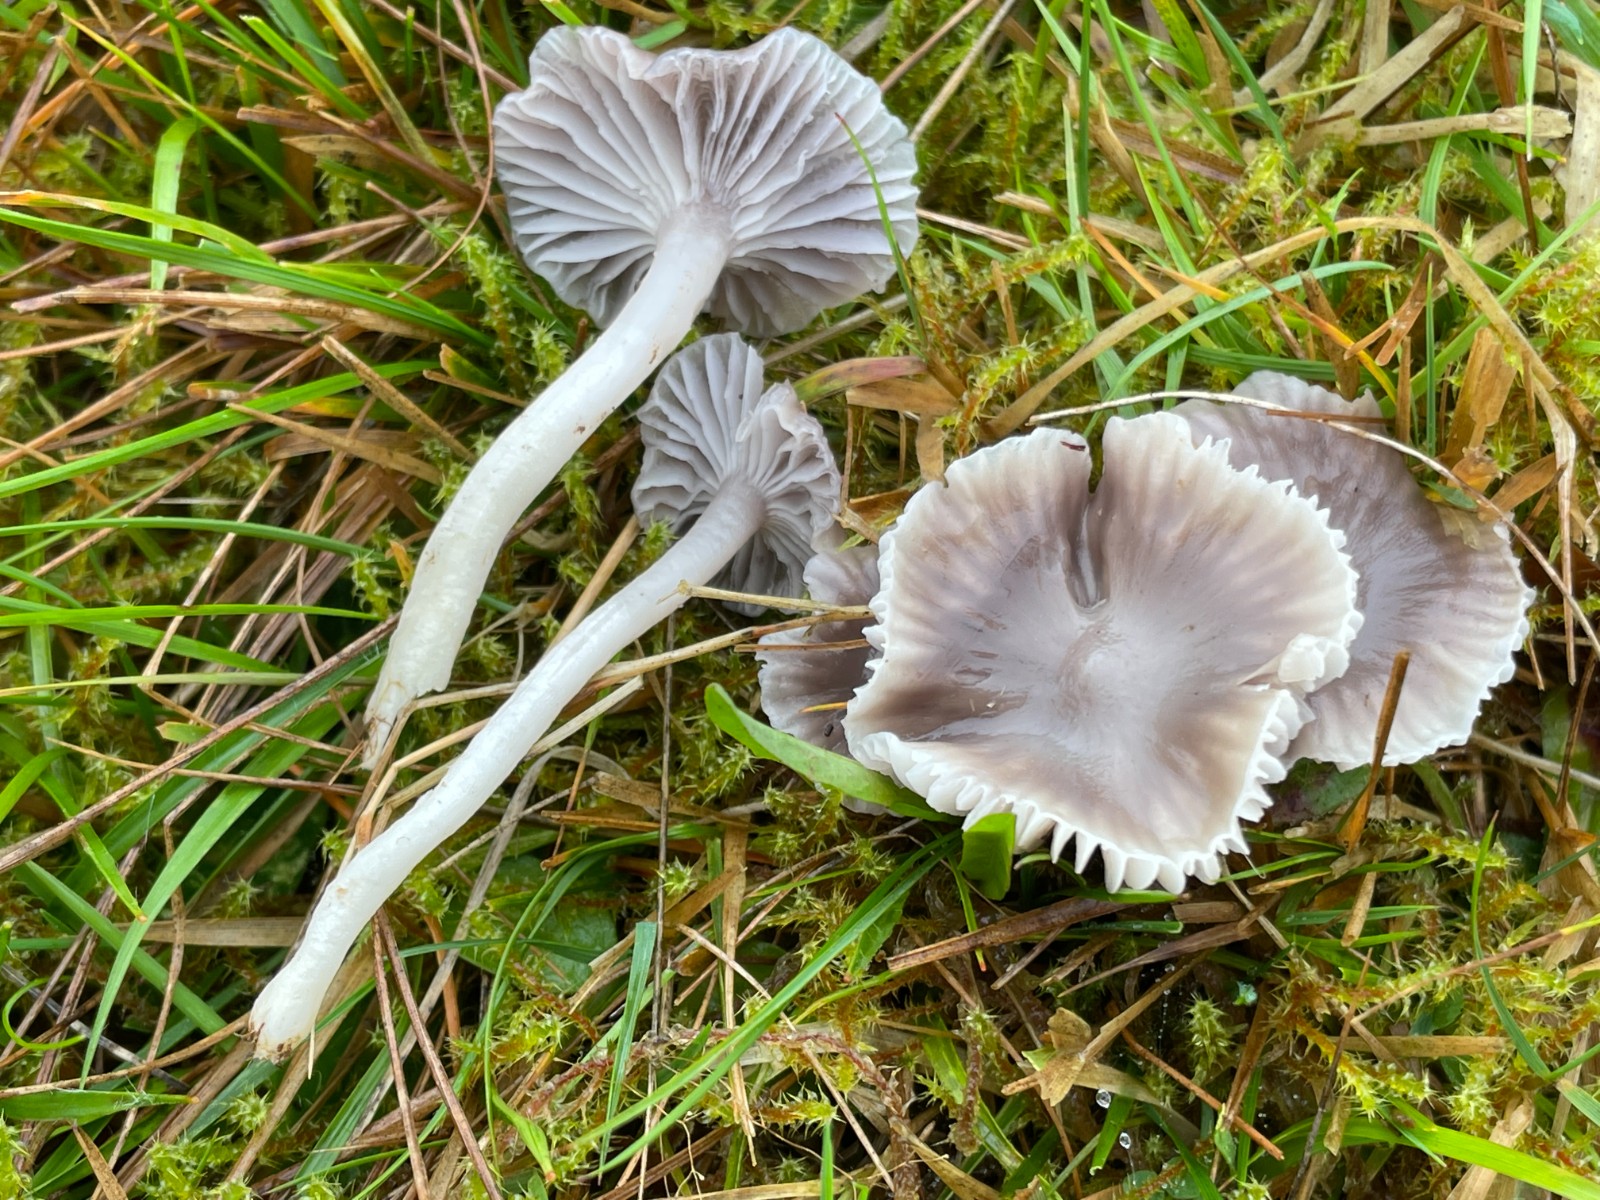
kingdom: Fungi
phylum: Basidiomycota
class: Agaricomycetes
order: Agaricales
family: Hygrophoraceae
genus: Cuphophyllus
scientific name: Cuphophyllus lacmus
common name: gråviolet vokshat
